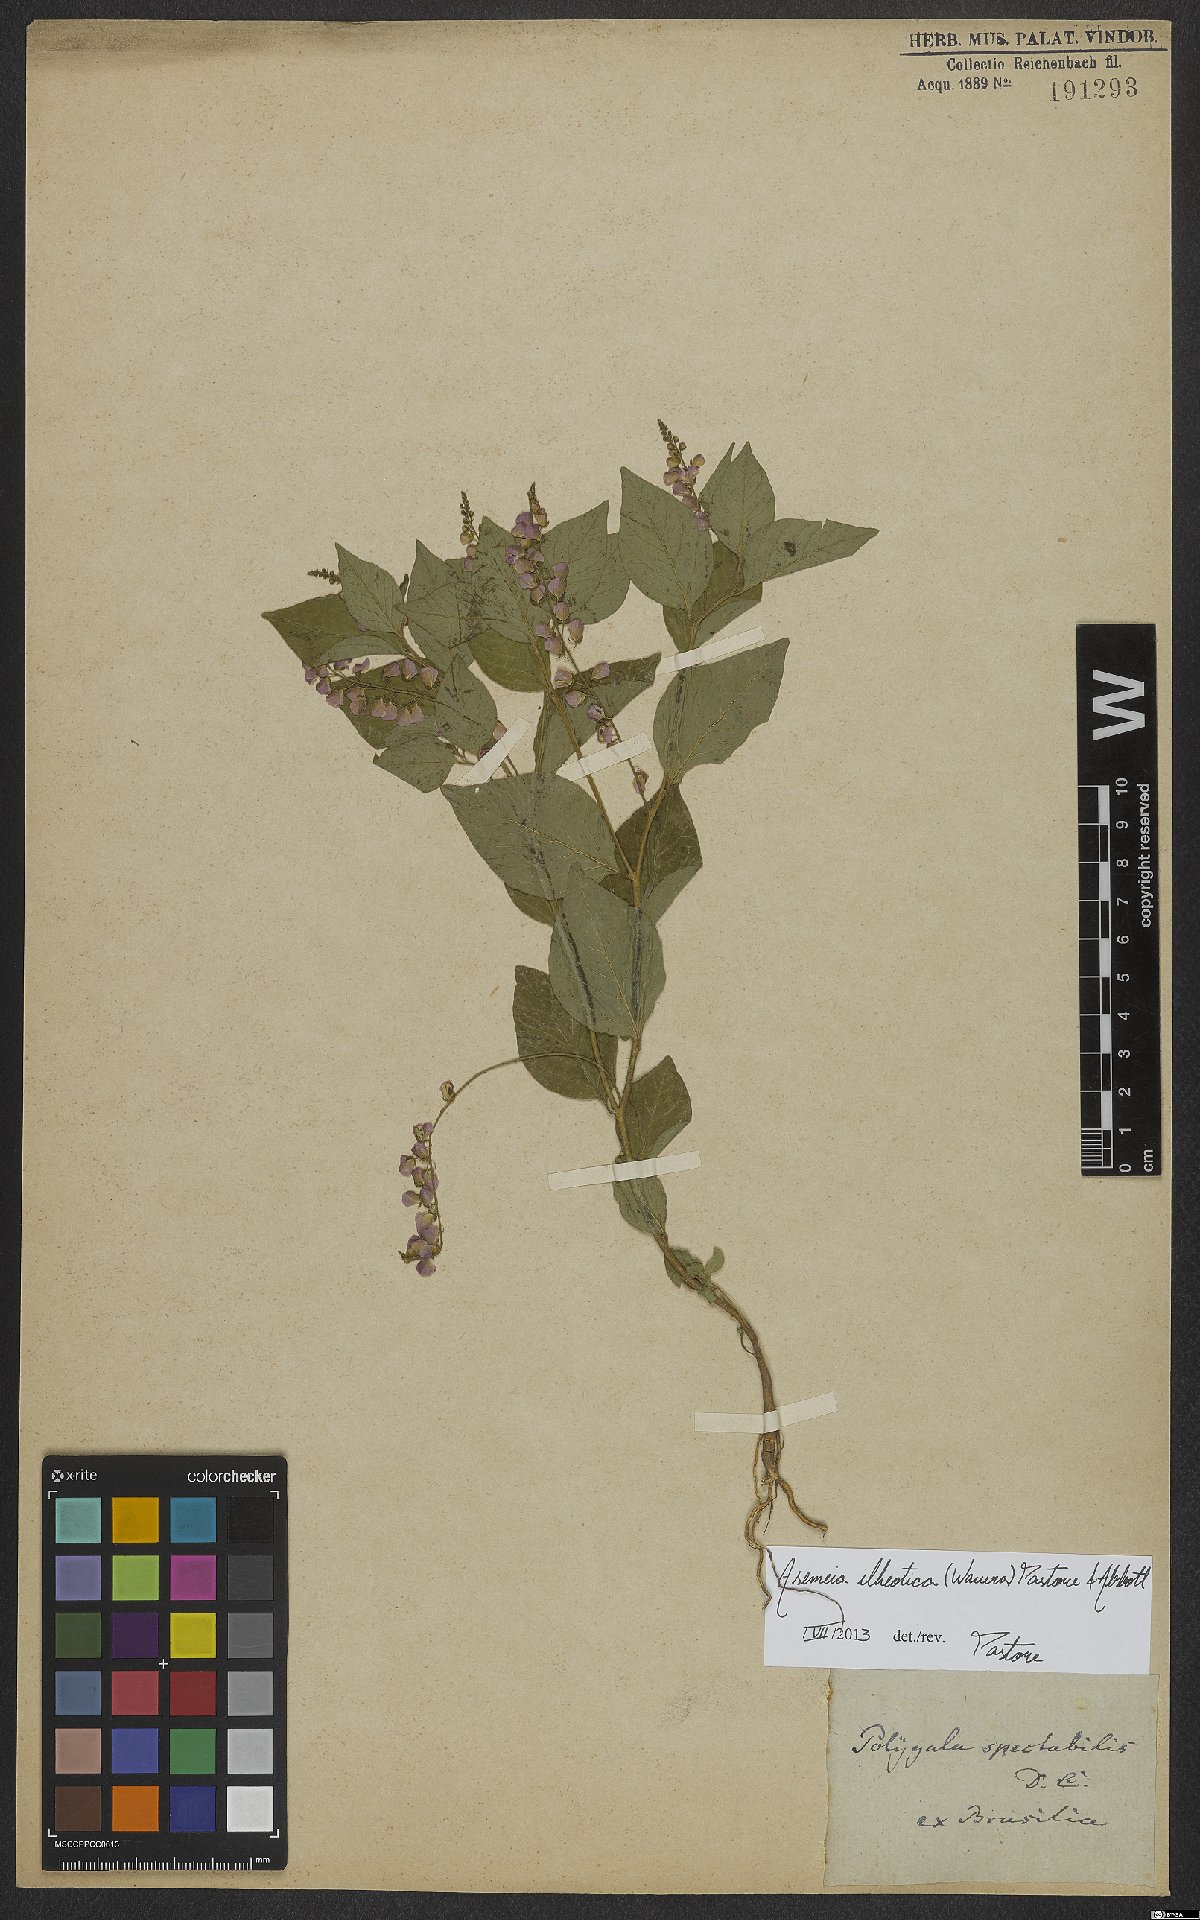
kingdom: Plantae
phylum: Tracheophyta
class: Magnoliopsida
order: Fabales
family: Polygalaceae
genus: Asemeia
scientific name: Asemeia ilheotica
